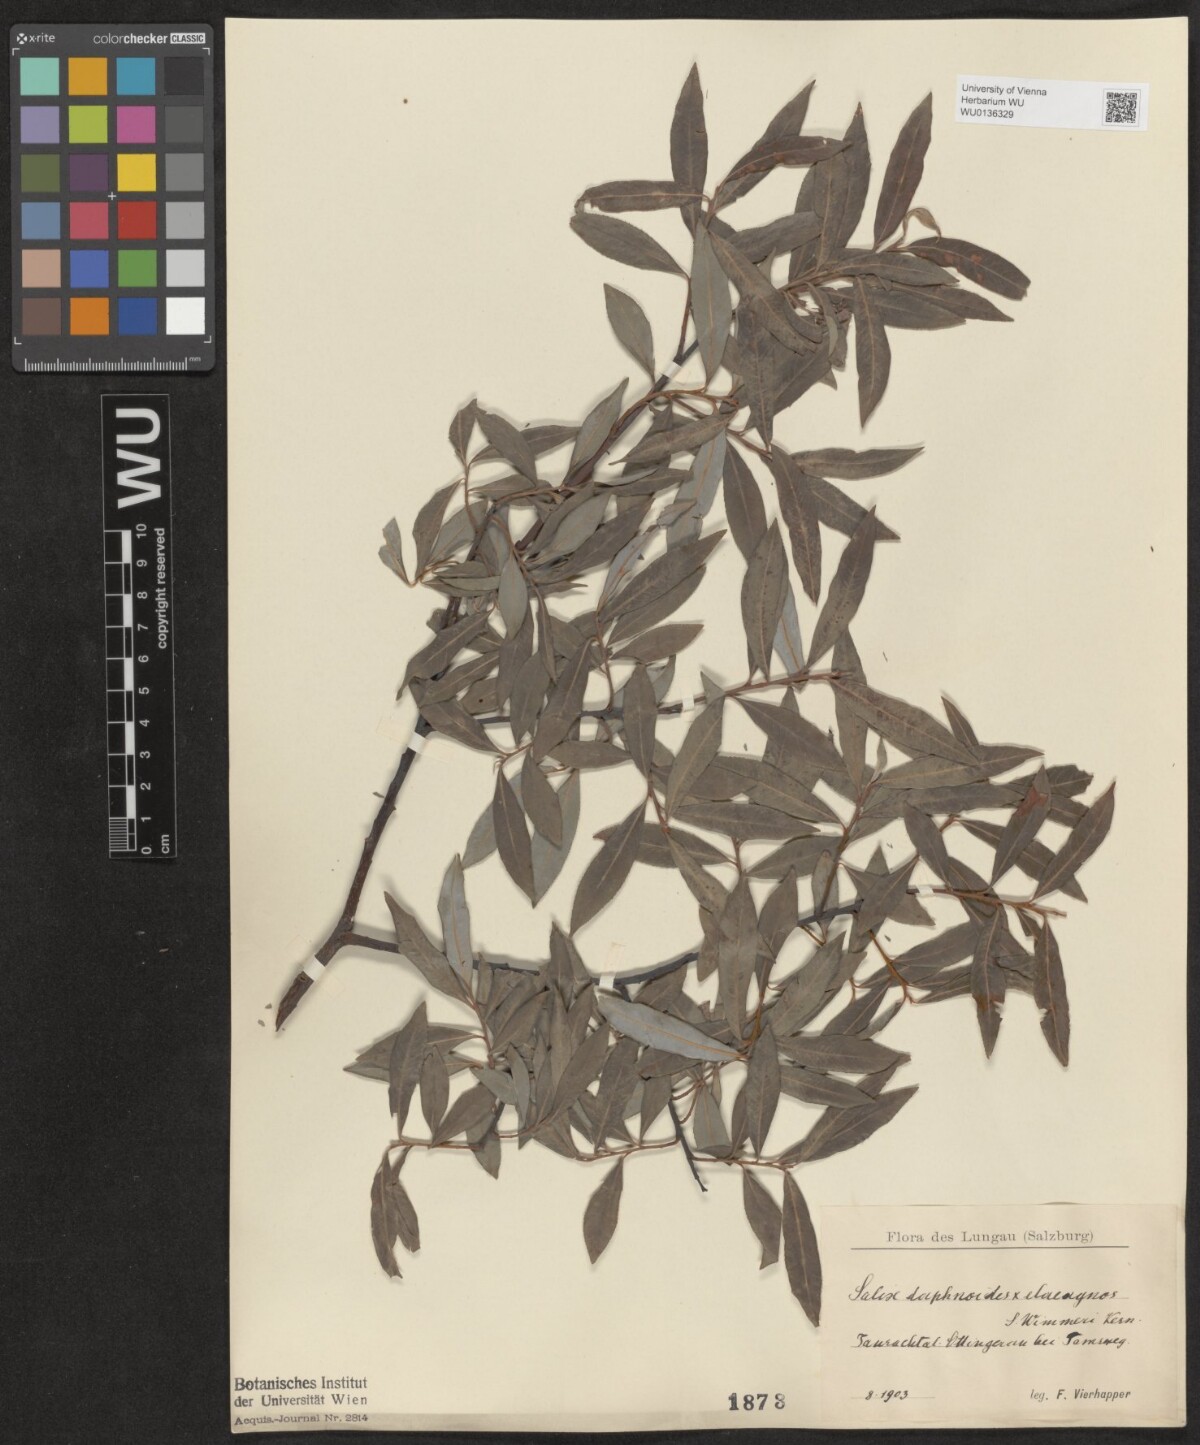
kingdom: Plantae
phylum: Tracheophyta
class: Magnoliopsida
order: Malpighiales
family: Salicaceae
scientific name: Salicaceae
